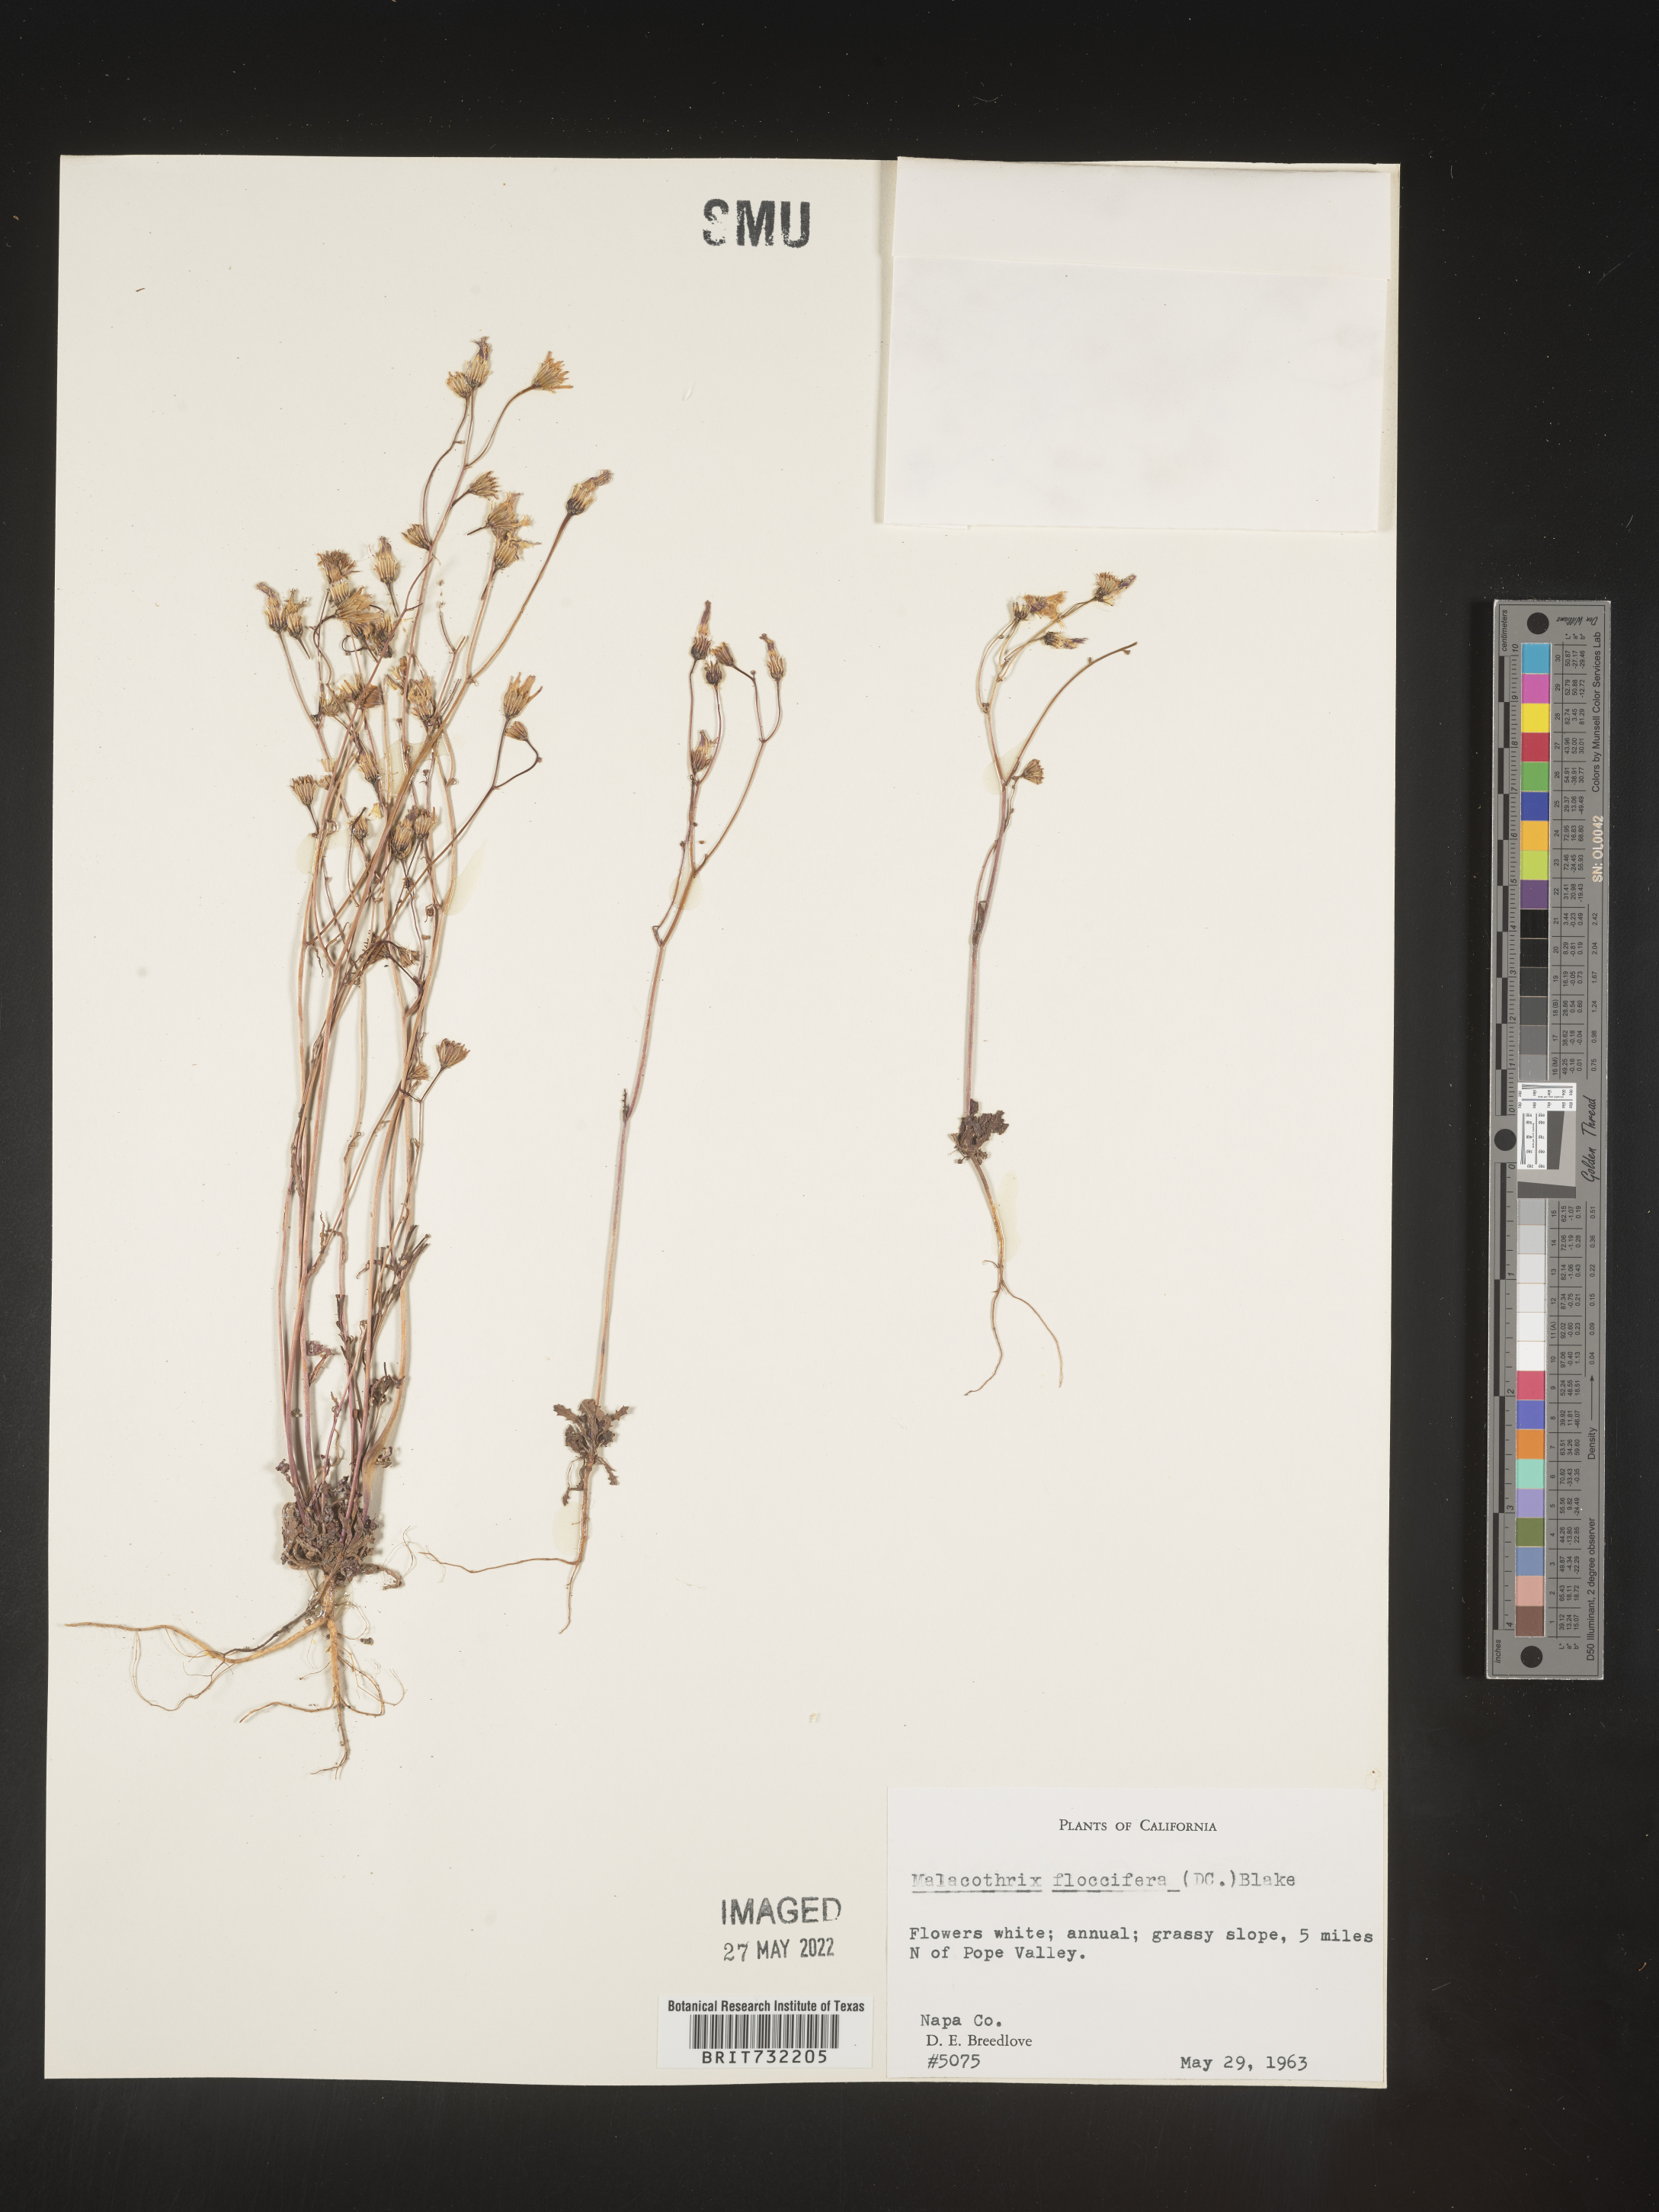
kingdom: Plantae
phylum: Tracheophyta
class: Magnoliopsida
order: Asterales
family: Asteraceae
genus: Malacothrix
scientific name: Malacothrix
